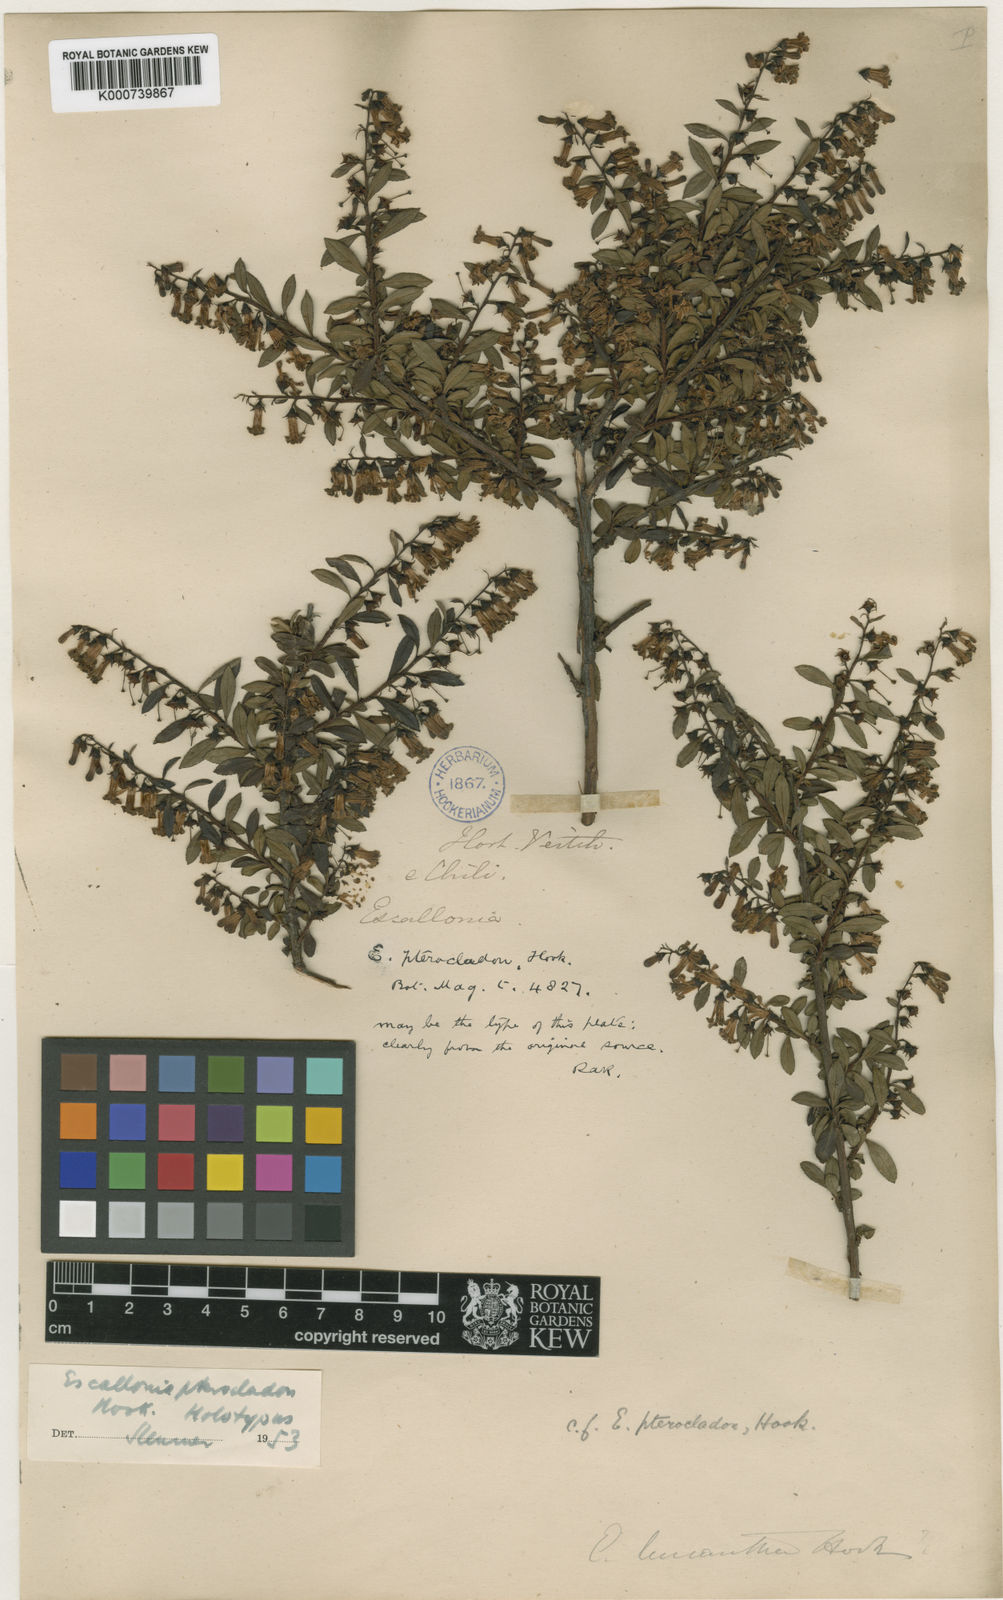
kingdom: Plantae
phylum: Tracheophyta
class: Magnoliopsida
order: Escalloniales
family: Escalloniaceae
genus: Escallonia
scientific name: Escallonia rosea
